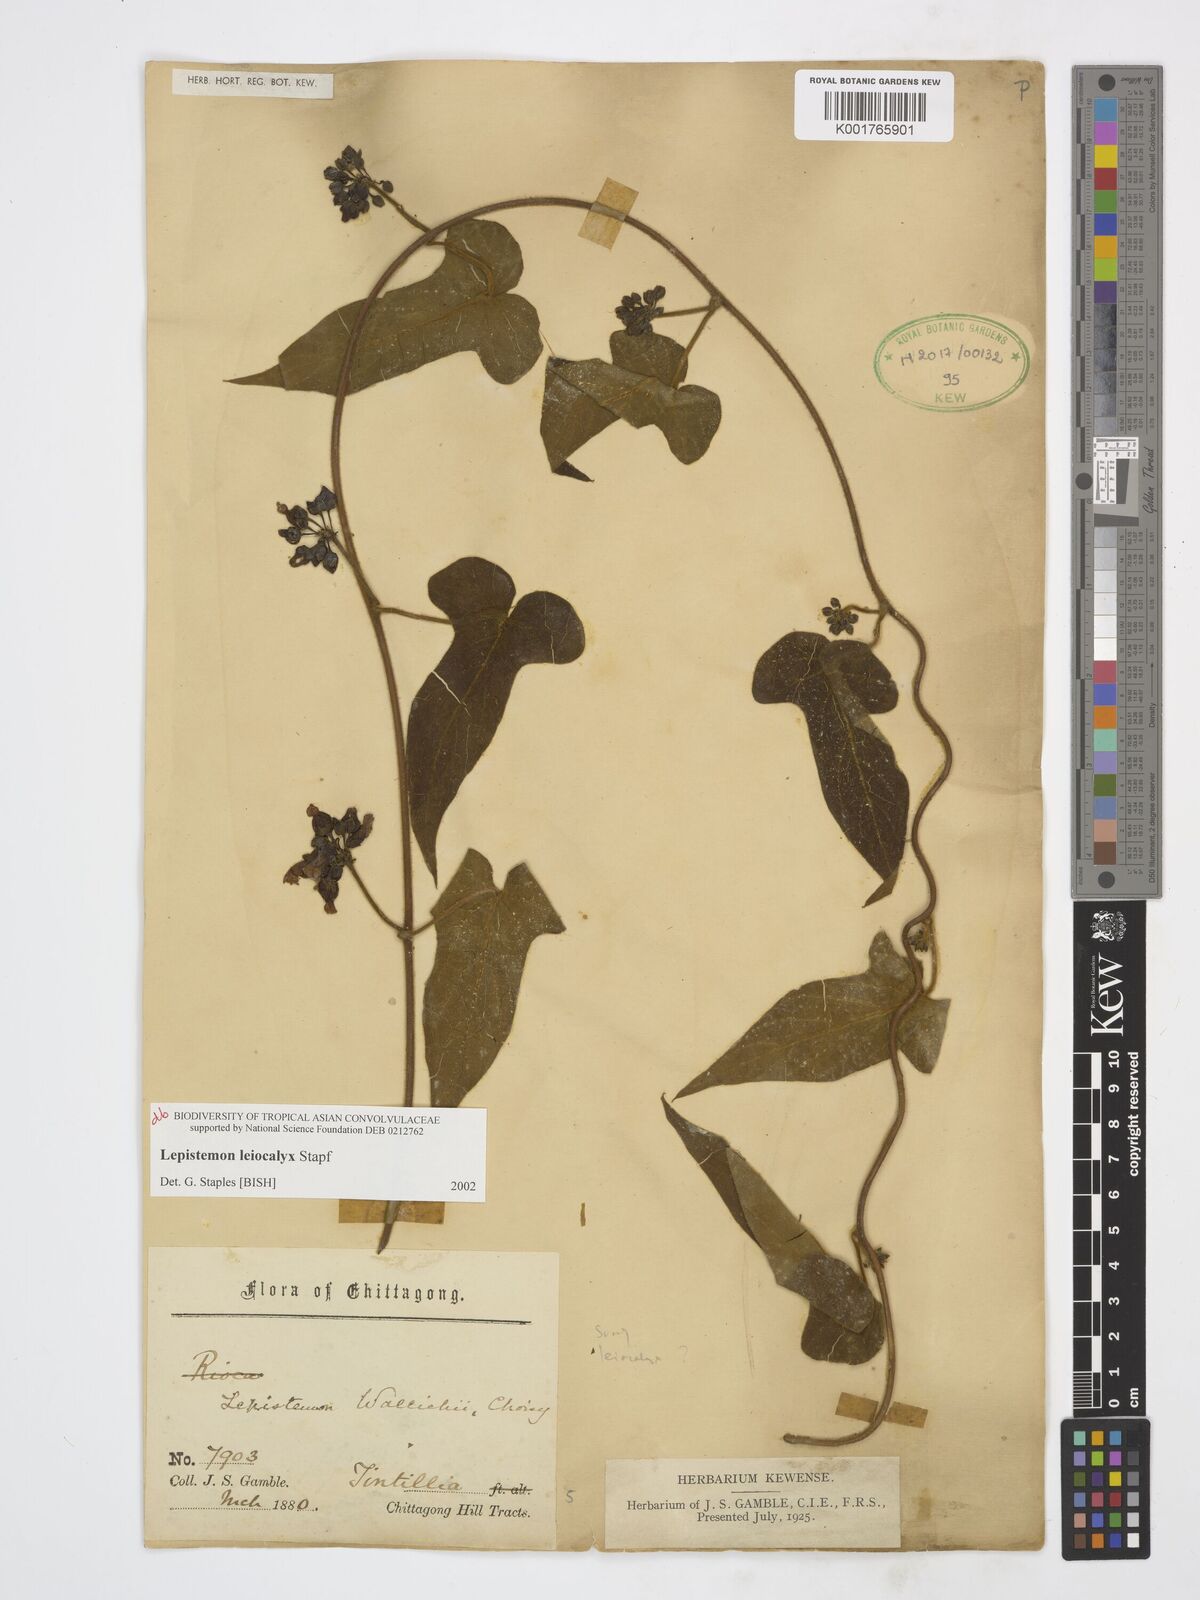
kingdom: Plantae
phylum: Tracheophyta
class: Magnoliopsida
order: Solanales
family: Convolvulaceae
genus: Lepistemon
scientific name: Lepistemon leiocalyx
